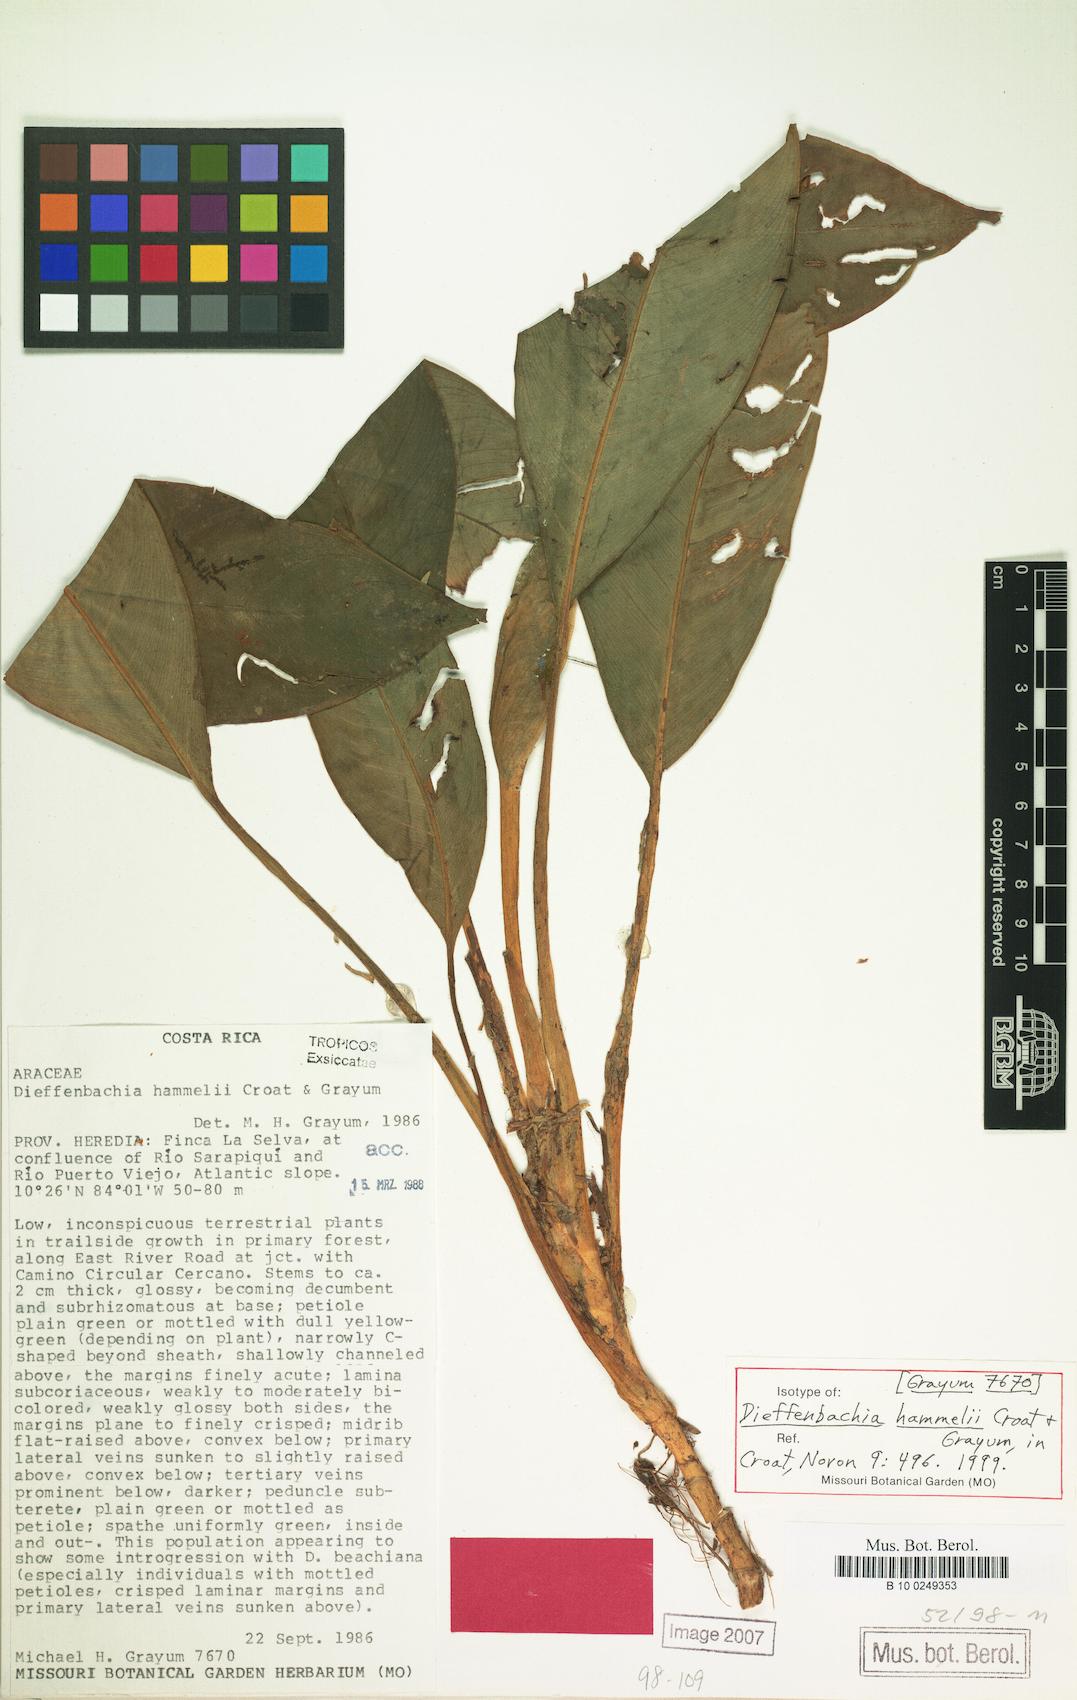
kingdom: Plantae
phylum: Tracheophyta
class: Liliopsida
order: Alismatales
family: Araceae
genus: Dieffenbachia
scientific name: Dieffenbachia hammelii
